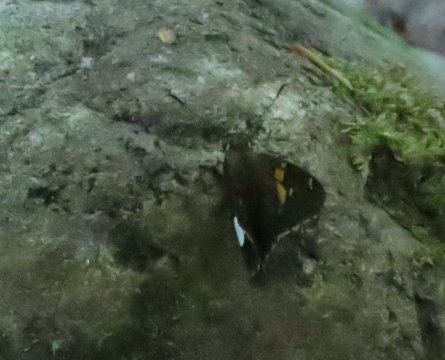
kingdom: Animalia
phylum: Arthropoda
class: Insecta
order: Lepidoptera
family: Hesperiidae
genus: Epargyreus
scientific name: Epargyreus clarus
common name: Silver-spotted Skipper
